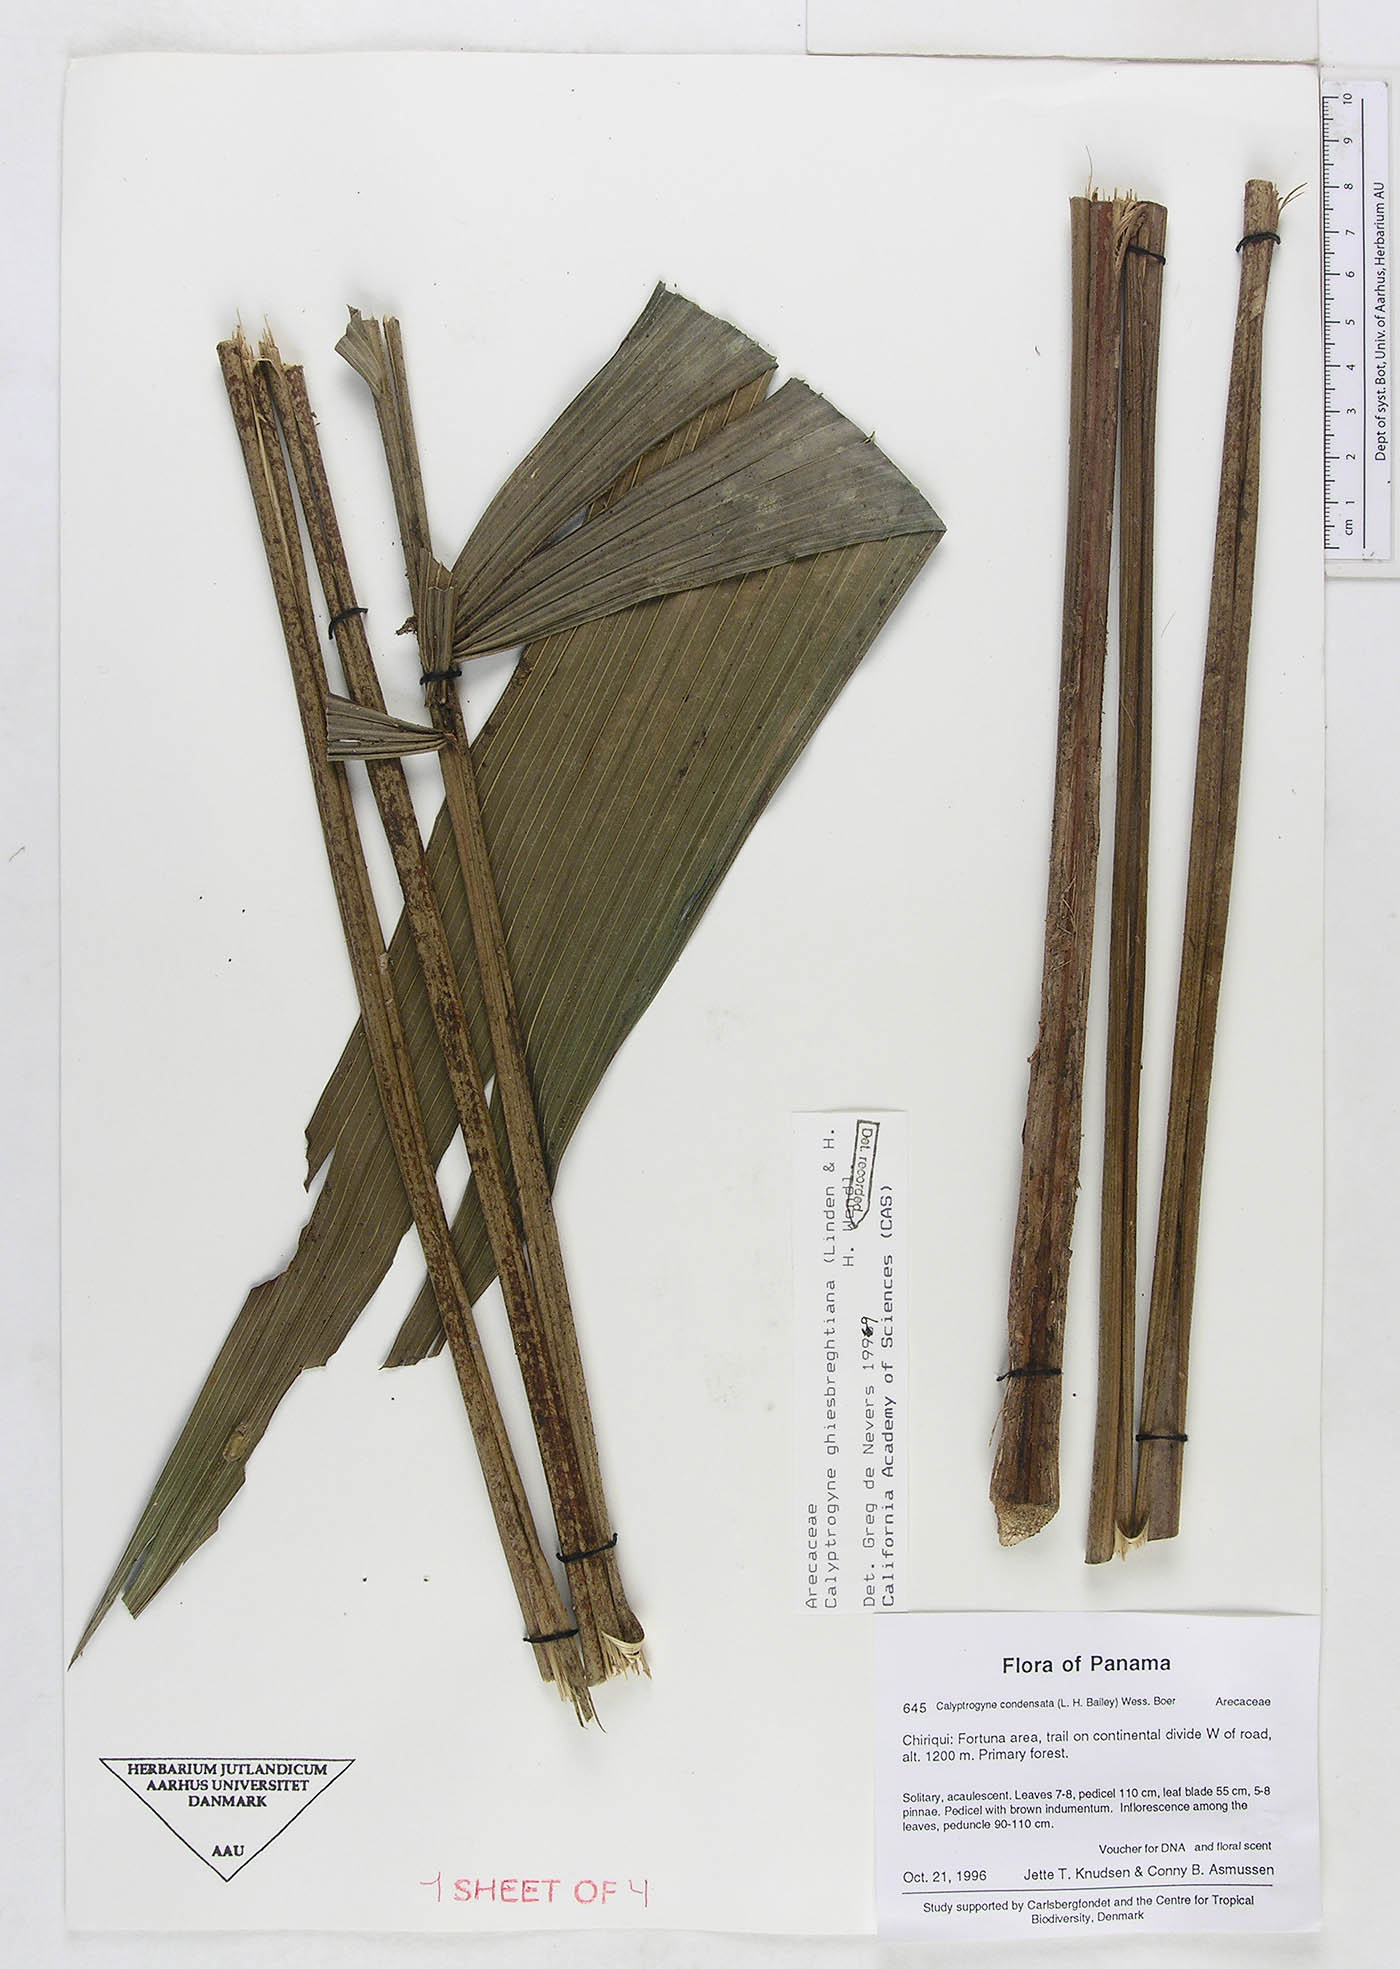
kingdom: Plantae
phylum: Tracheophyta
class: Liliopsida
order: Arecales
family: Arecaceae
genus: Calyptrogyne
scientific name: Calyptrogyne ghiesbreghtiana
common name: Coligallo
